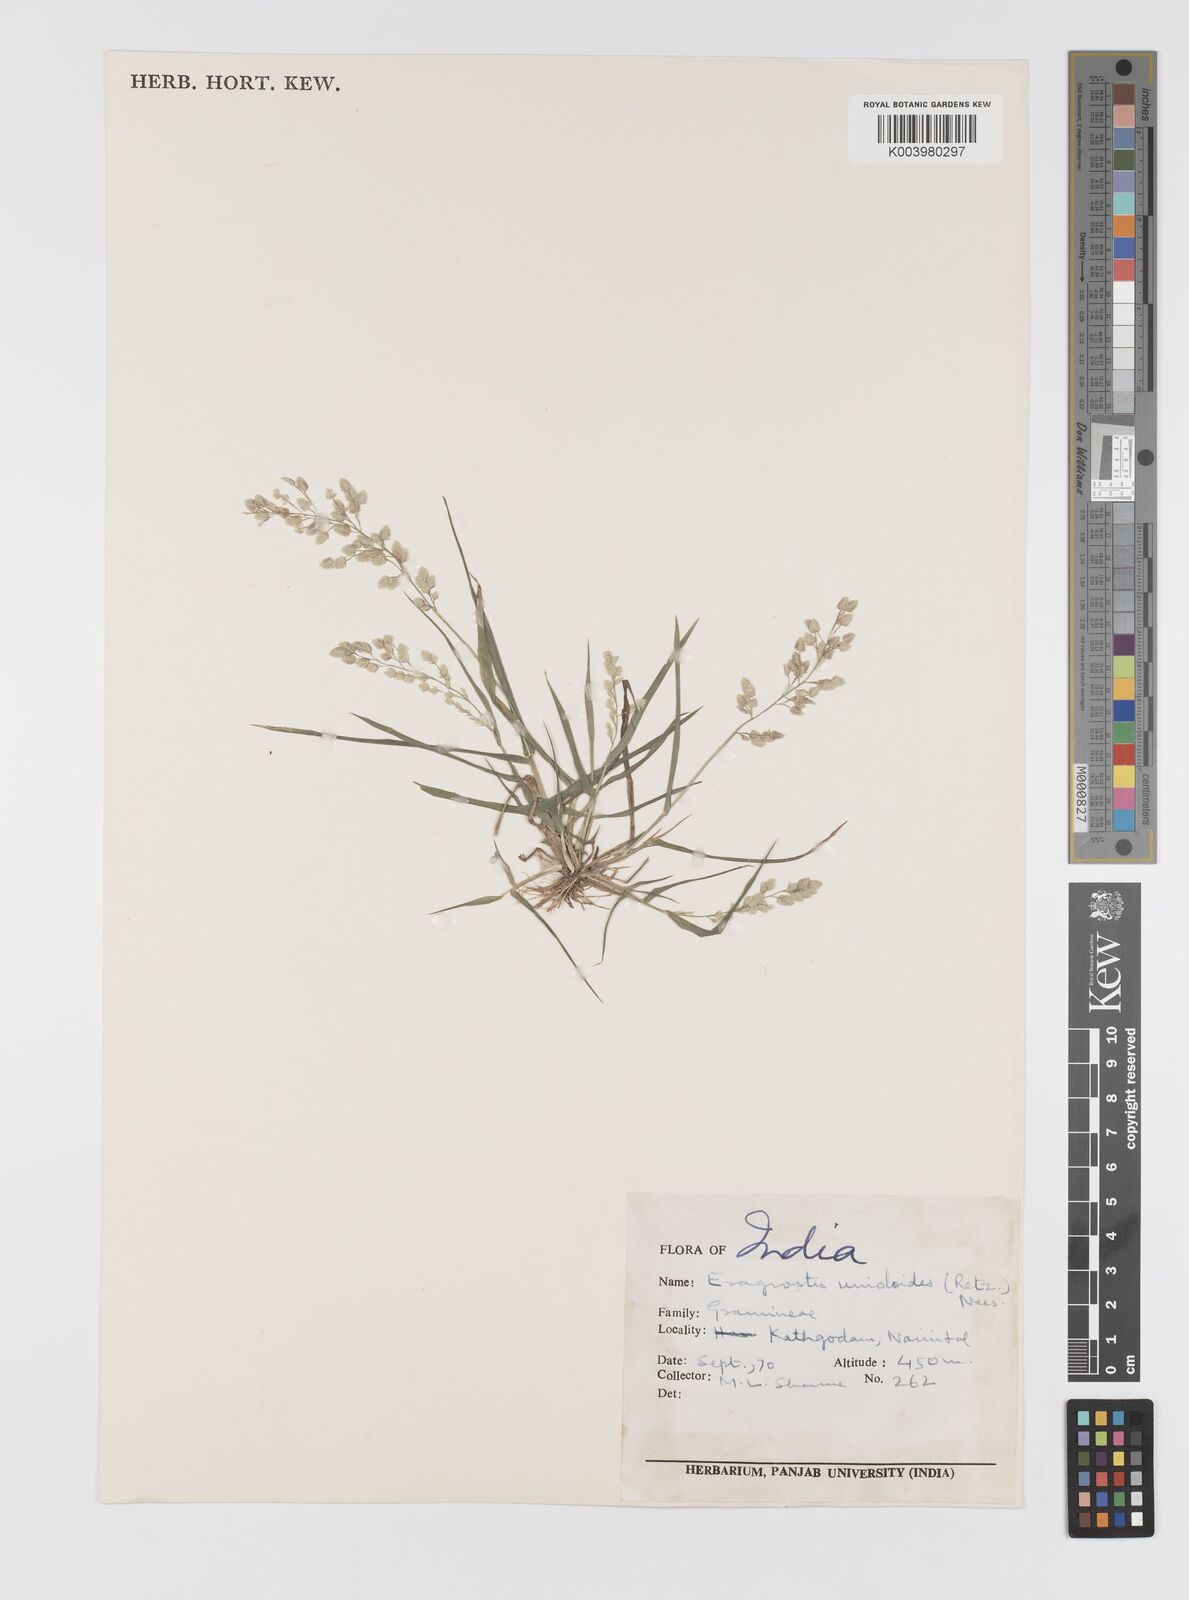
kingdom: Plantae
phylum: Tracheophyta
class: Liliopsida
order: Poales
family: Poaceae
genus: Eragrostis
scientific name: Eragrostis unioloides
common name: Chinese lovegrass
